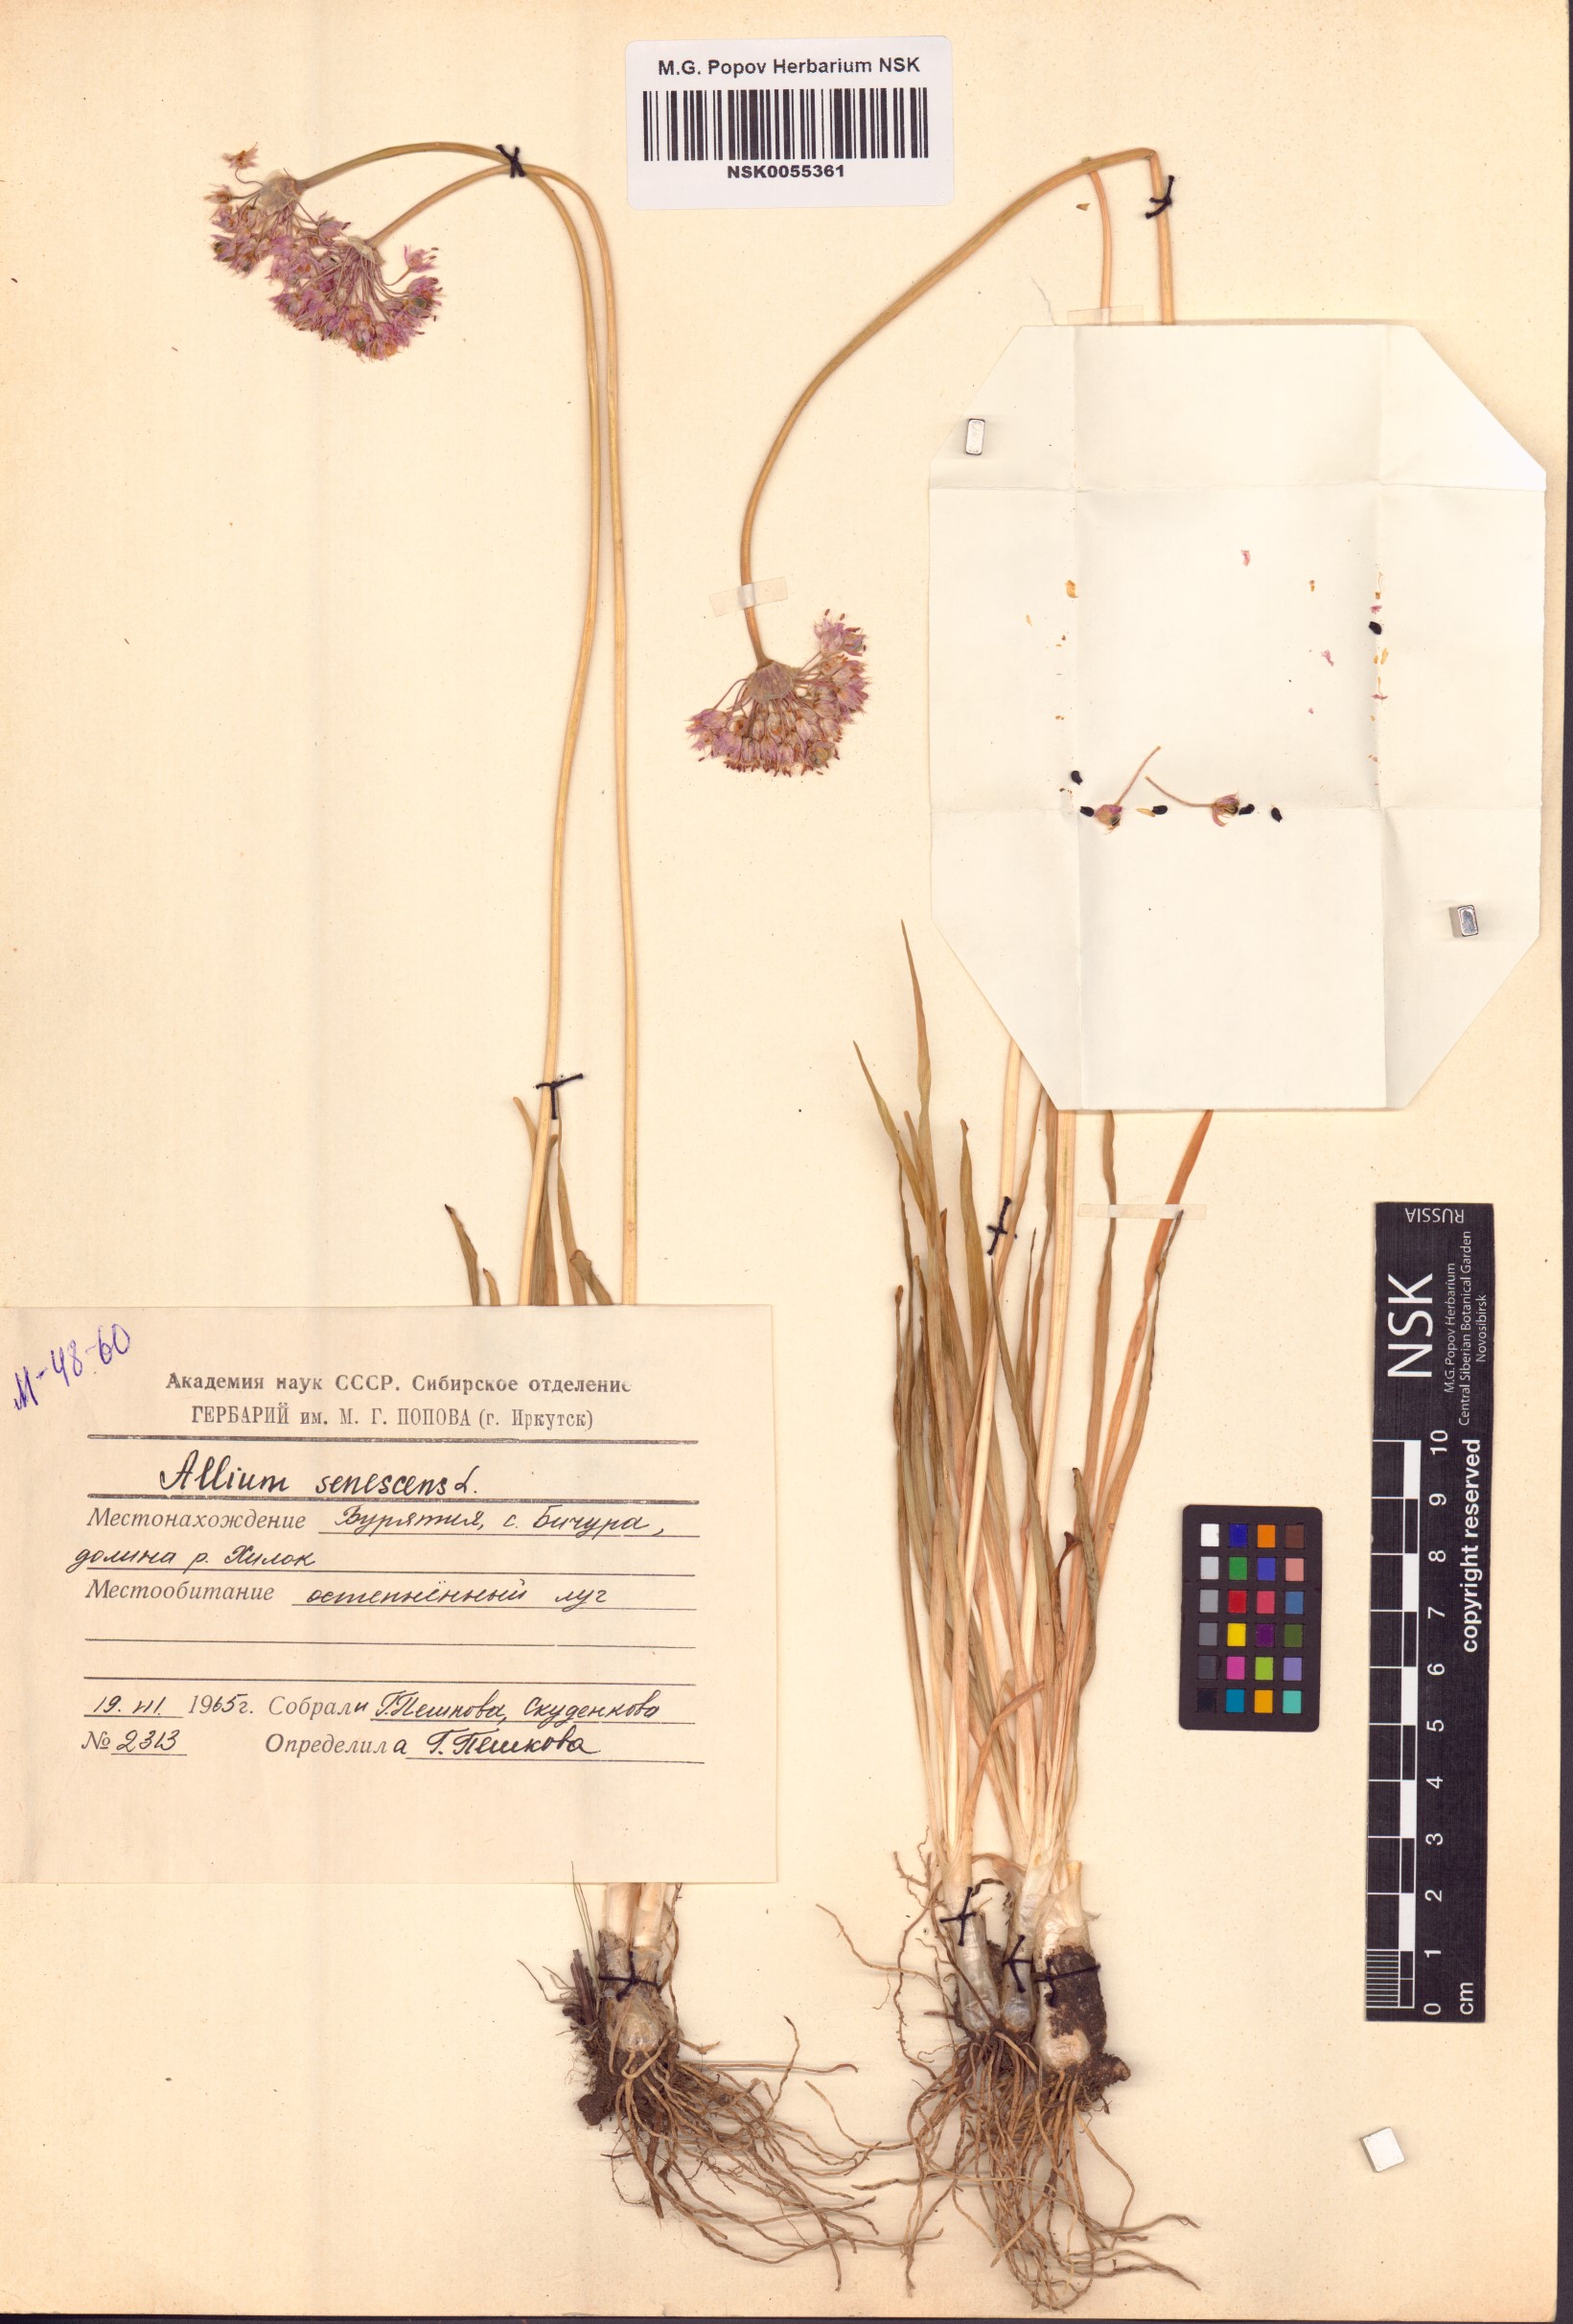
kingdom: Plantae
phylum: Tracheophyta
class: Liliopsida
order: Asparagales
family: Amaryllidaceae
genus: Allium
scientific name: Allium senescens
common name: German garlic
